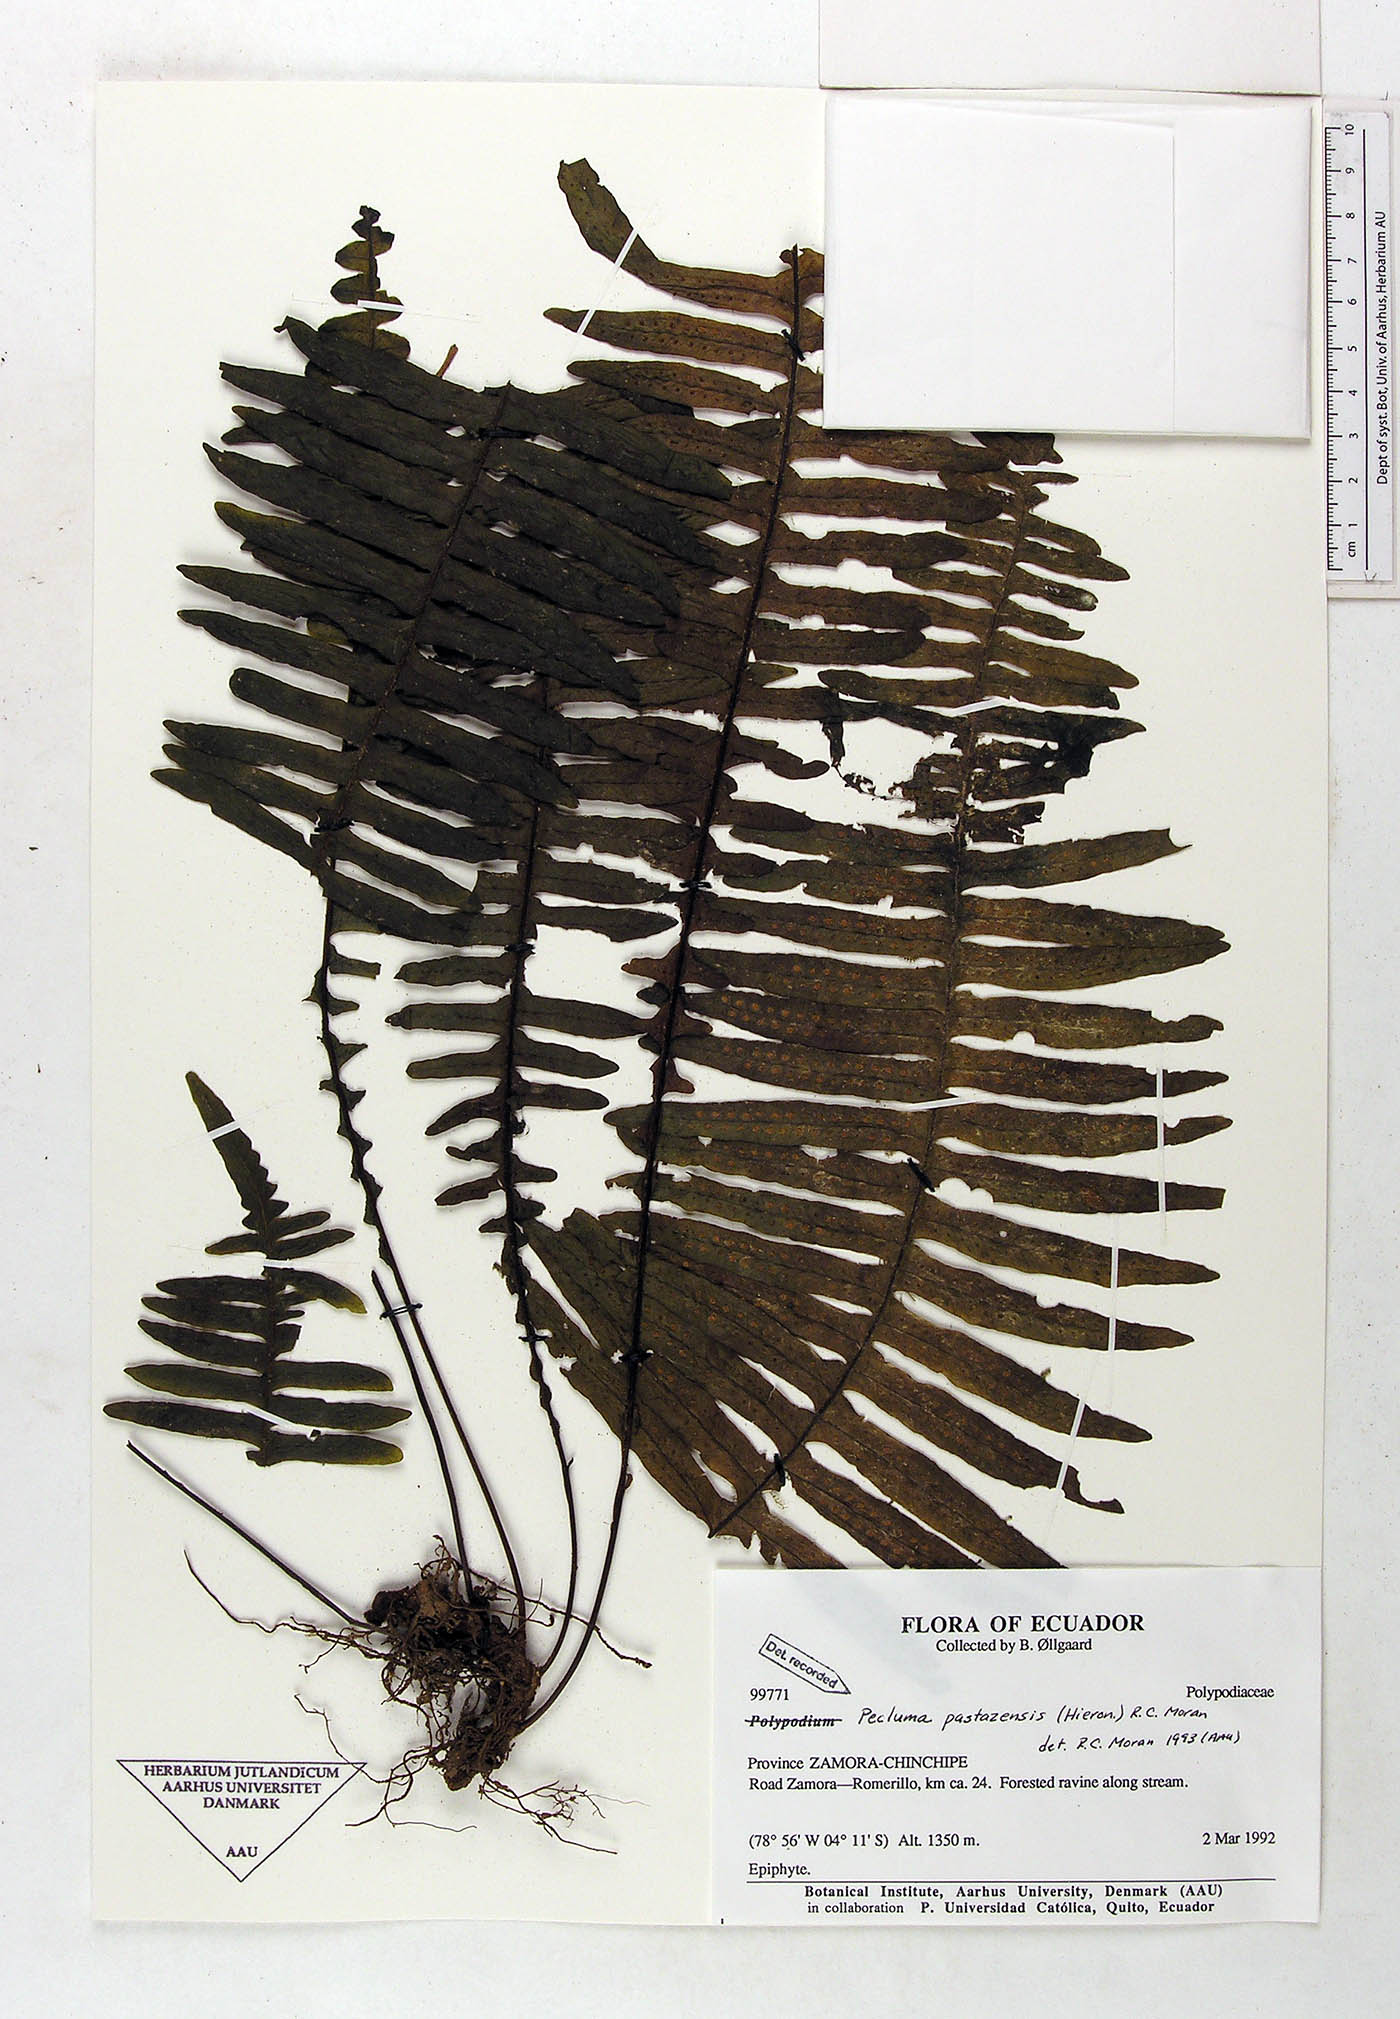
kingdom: Plantae
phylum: Tracheophyta
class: Polypodiopsida
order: Polypodiales
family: Polypodiaceae
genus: Pecluma
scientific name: Pecluma pastazensis
